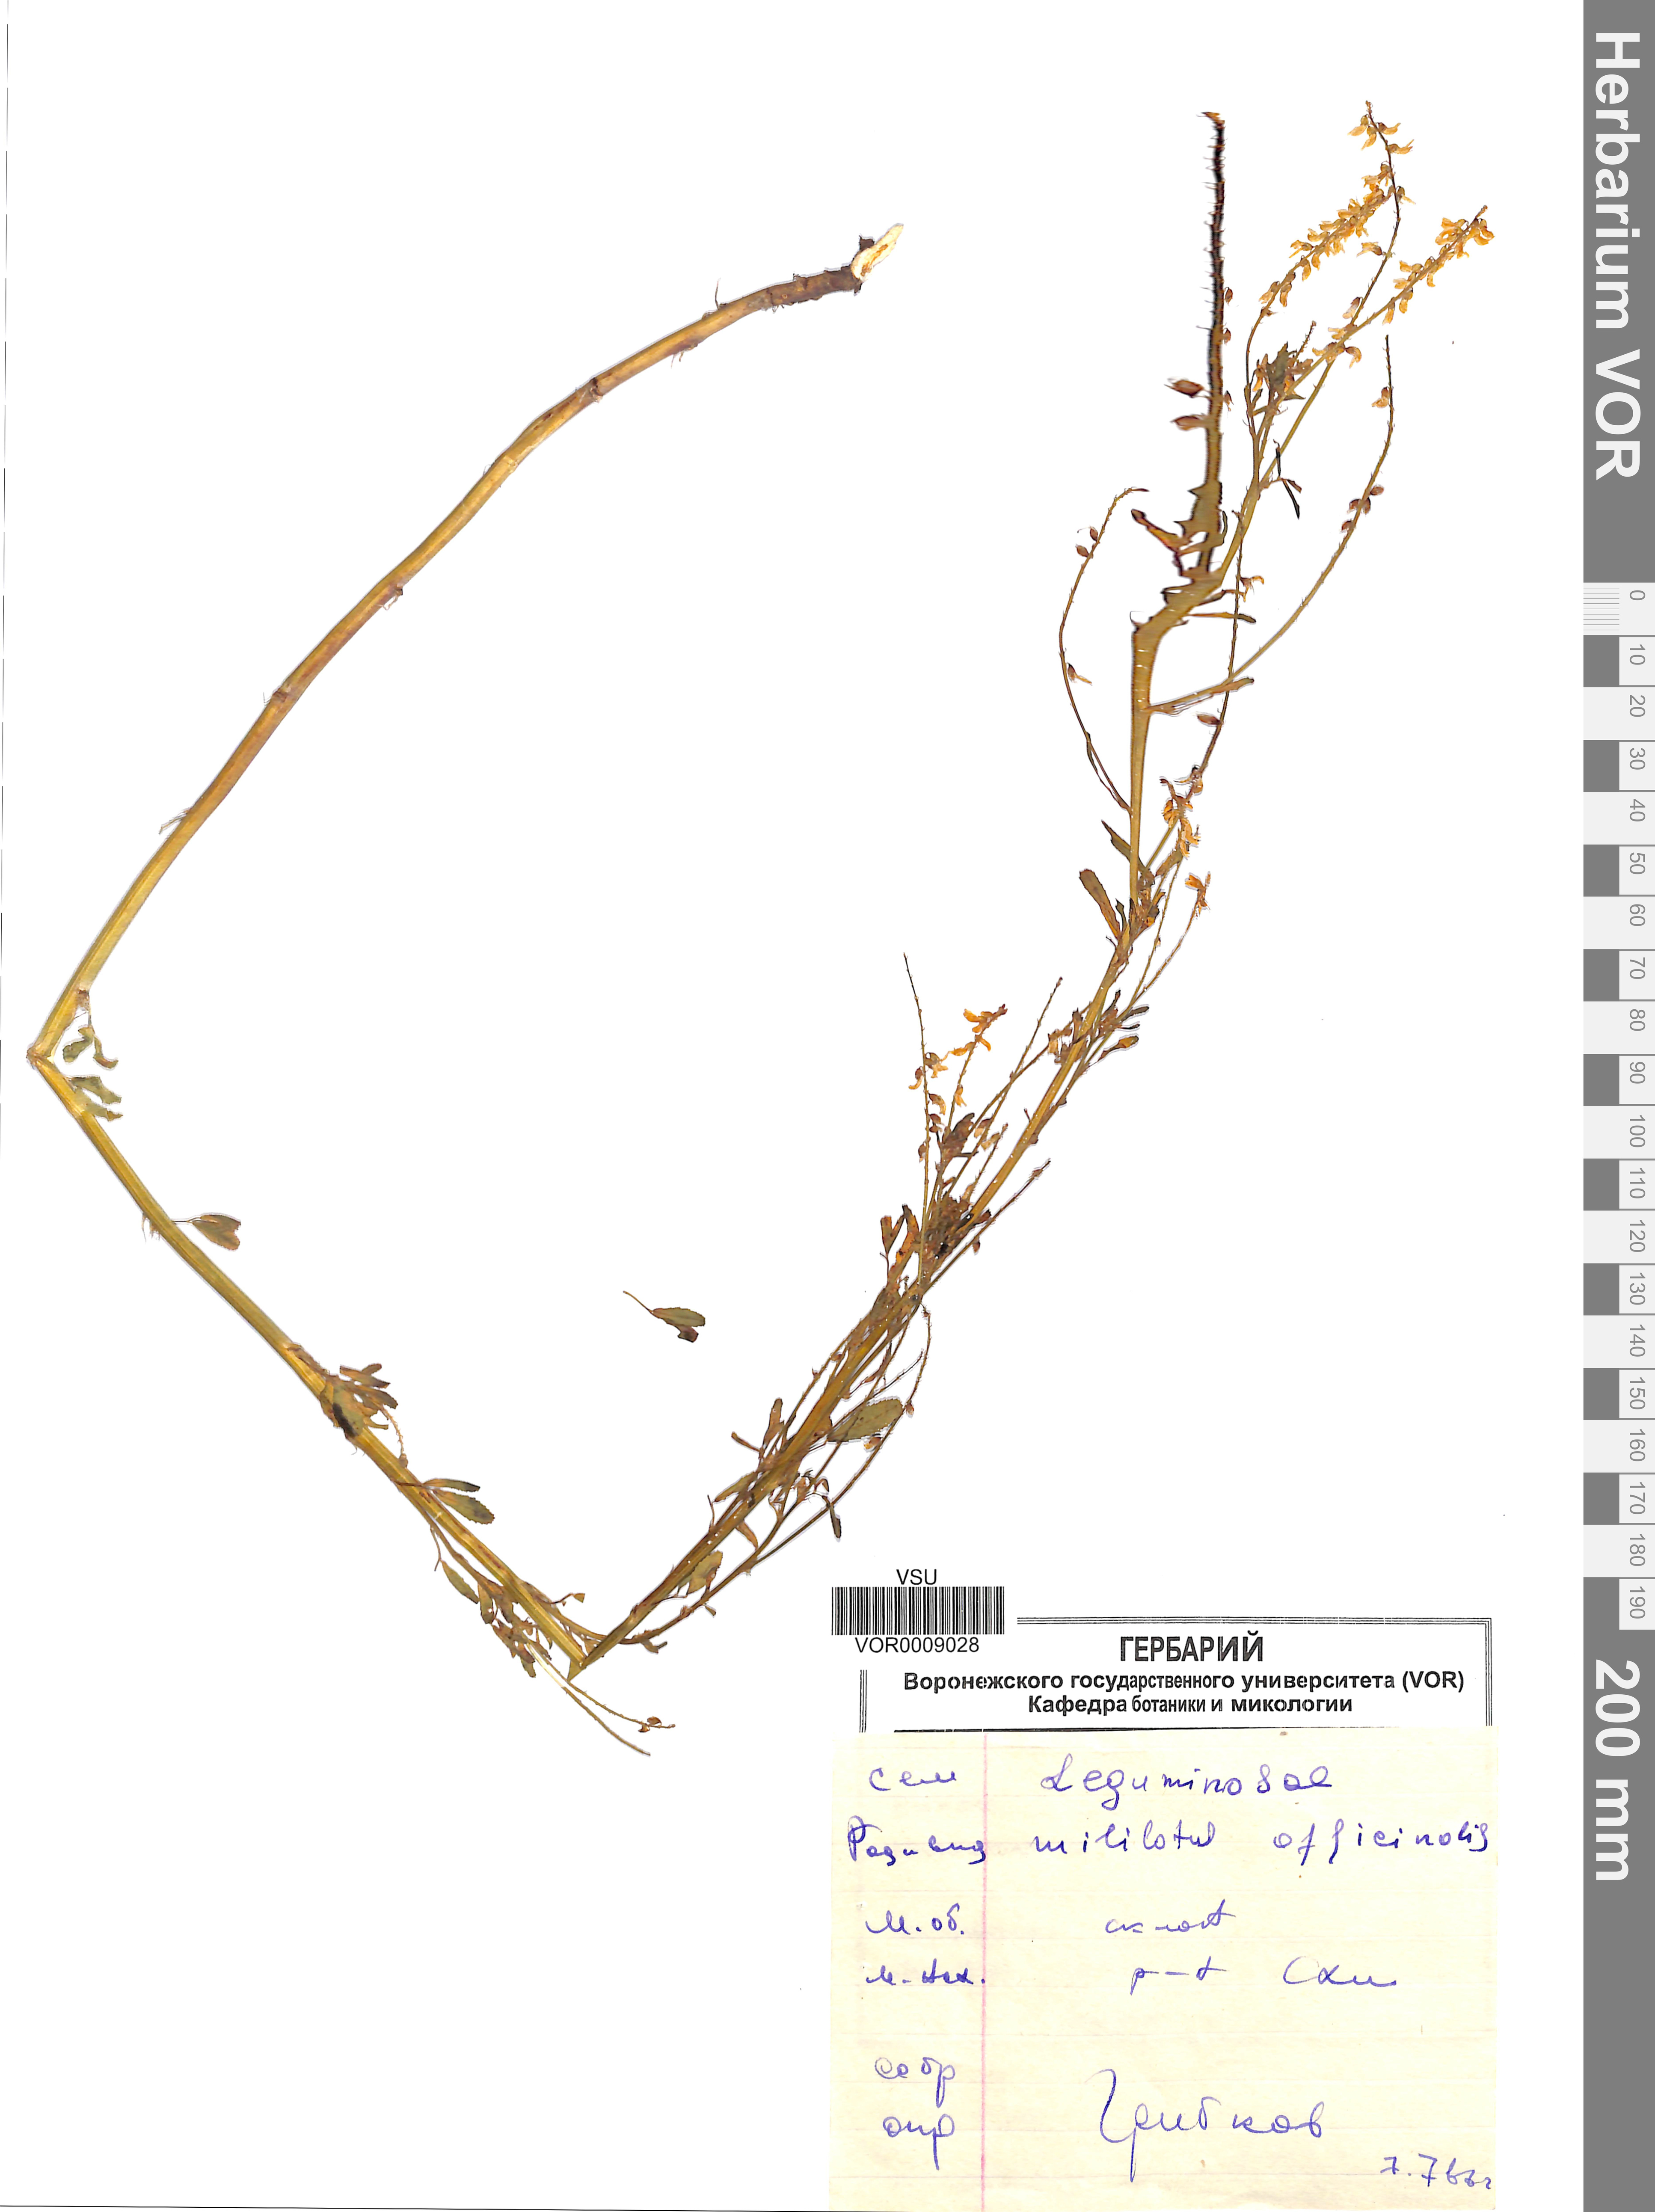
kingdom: Plantae
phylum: Tracheophyta
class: Magnoliopsida
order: Fabales
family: Fabaceae
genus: Melilotus
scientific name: Melilotus officinalis
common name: Sweetclover
